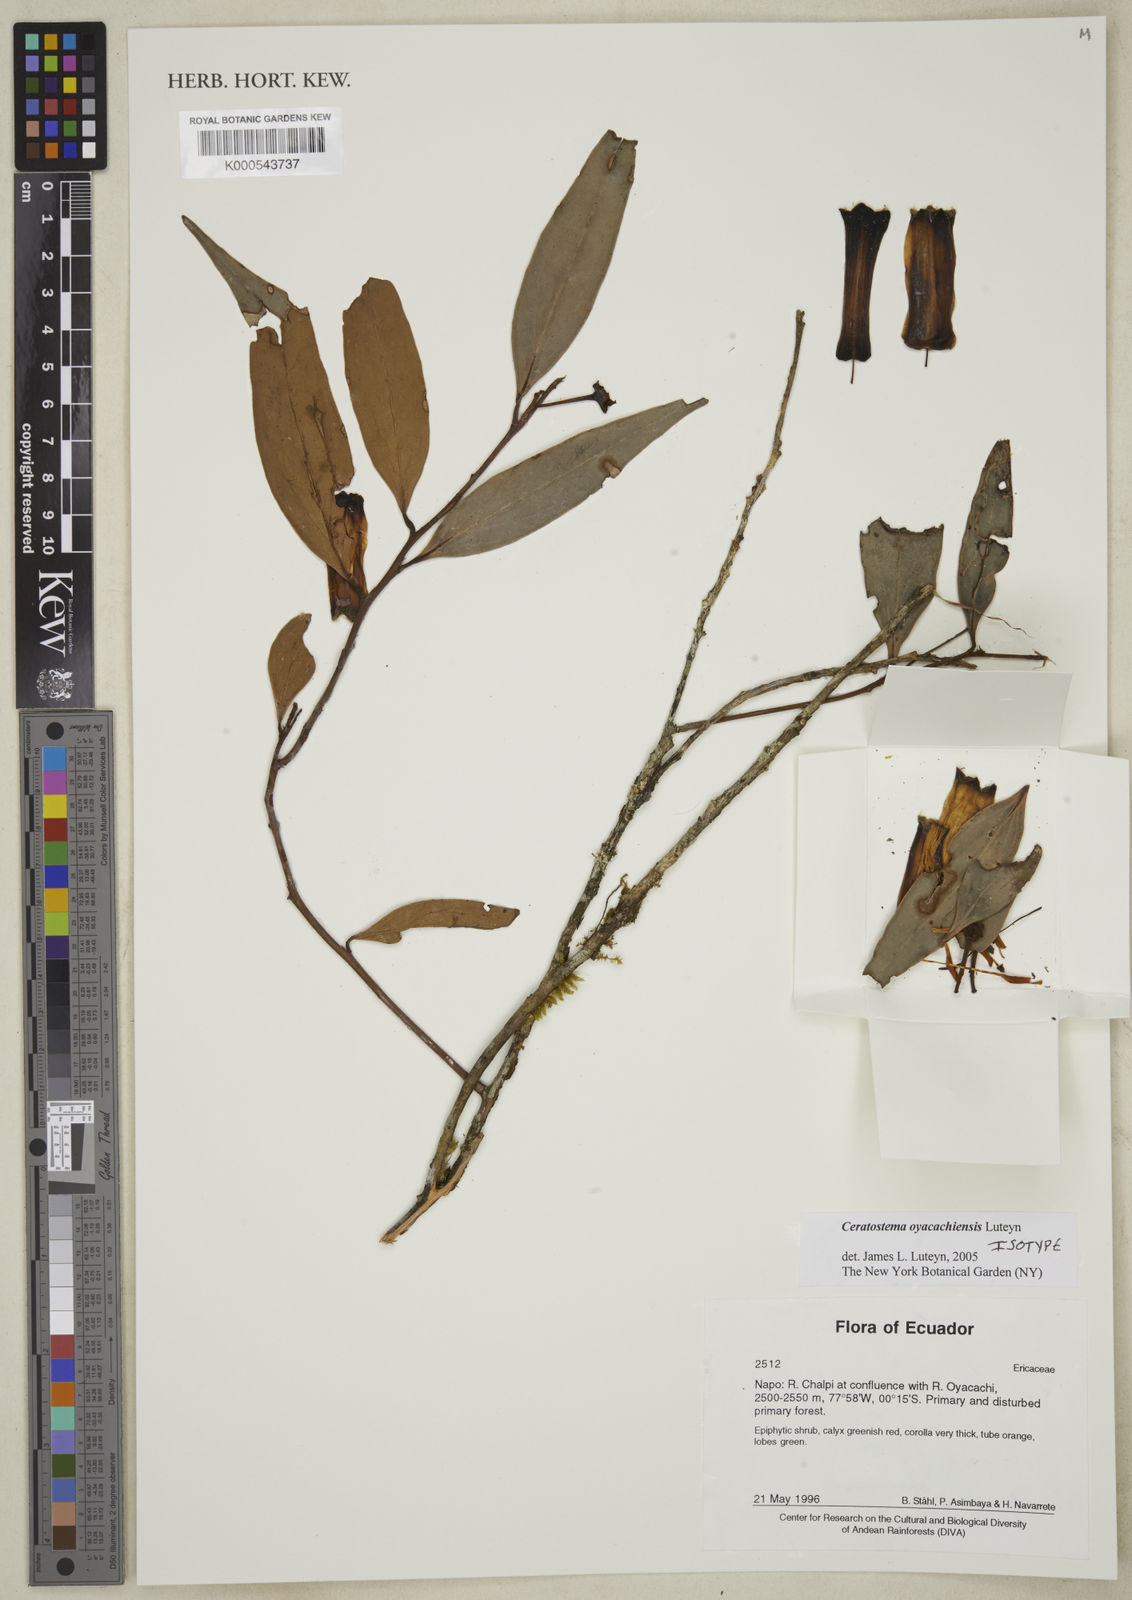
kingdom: Plantae
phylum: Tracheophyta
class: Magnoliopsida
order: Ericales
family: Ericaceae
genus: Ceratostema
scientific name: Ceratostema oyacachiensis
